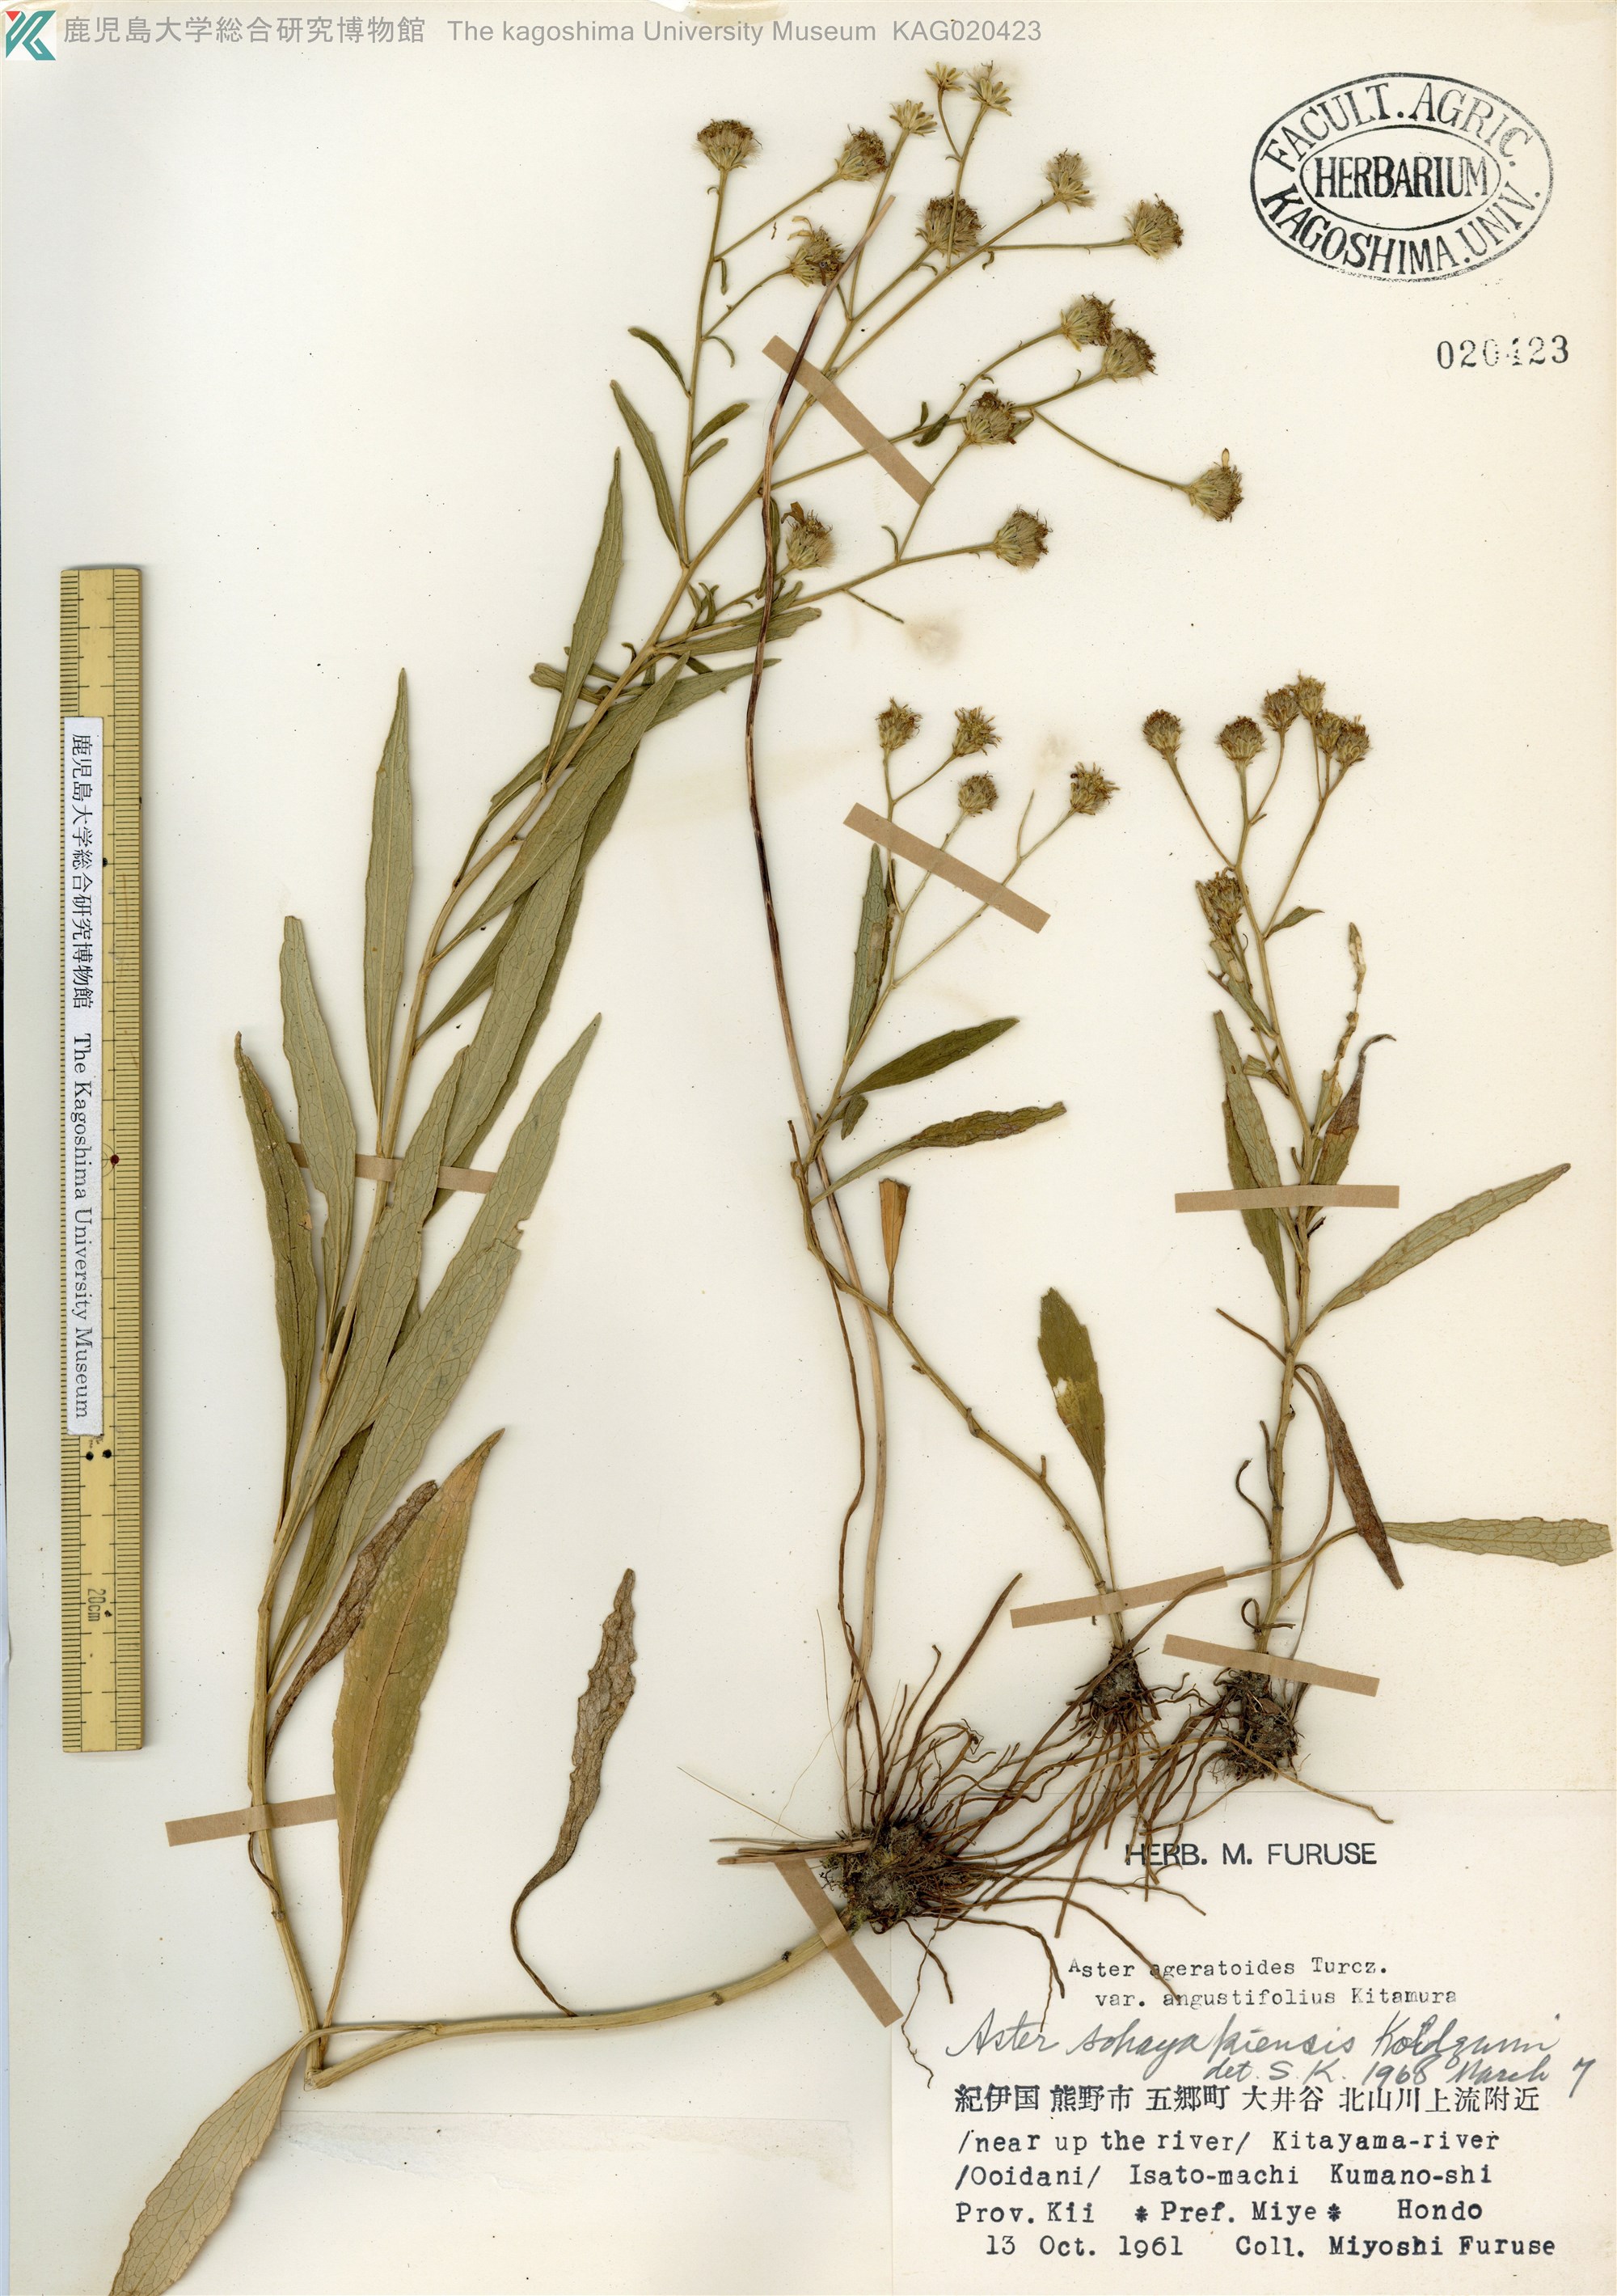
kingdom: Plantae
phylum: Tracheophyta
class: Magnoliopsida
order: Asterales
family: Asteraceae
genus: Cardiagyris
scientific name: Cardiagyris sohayakiensis
